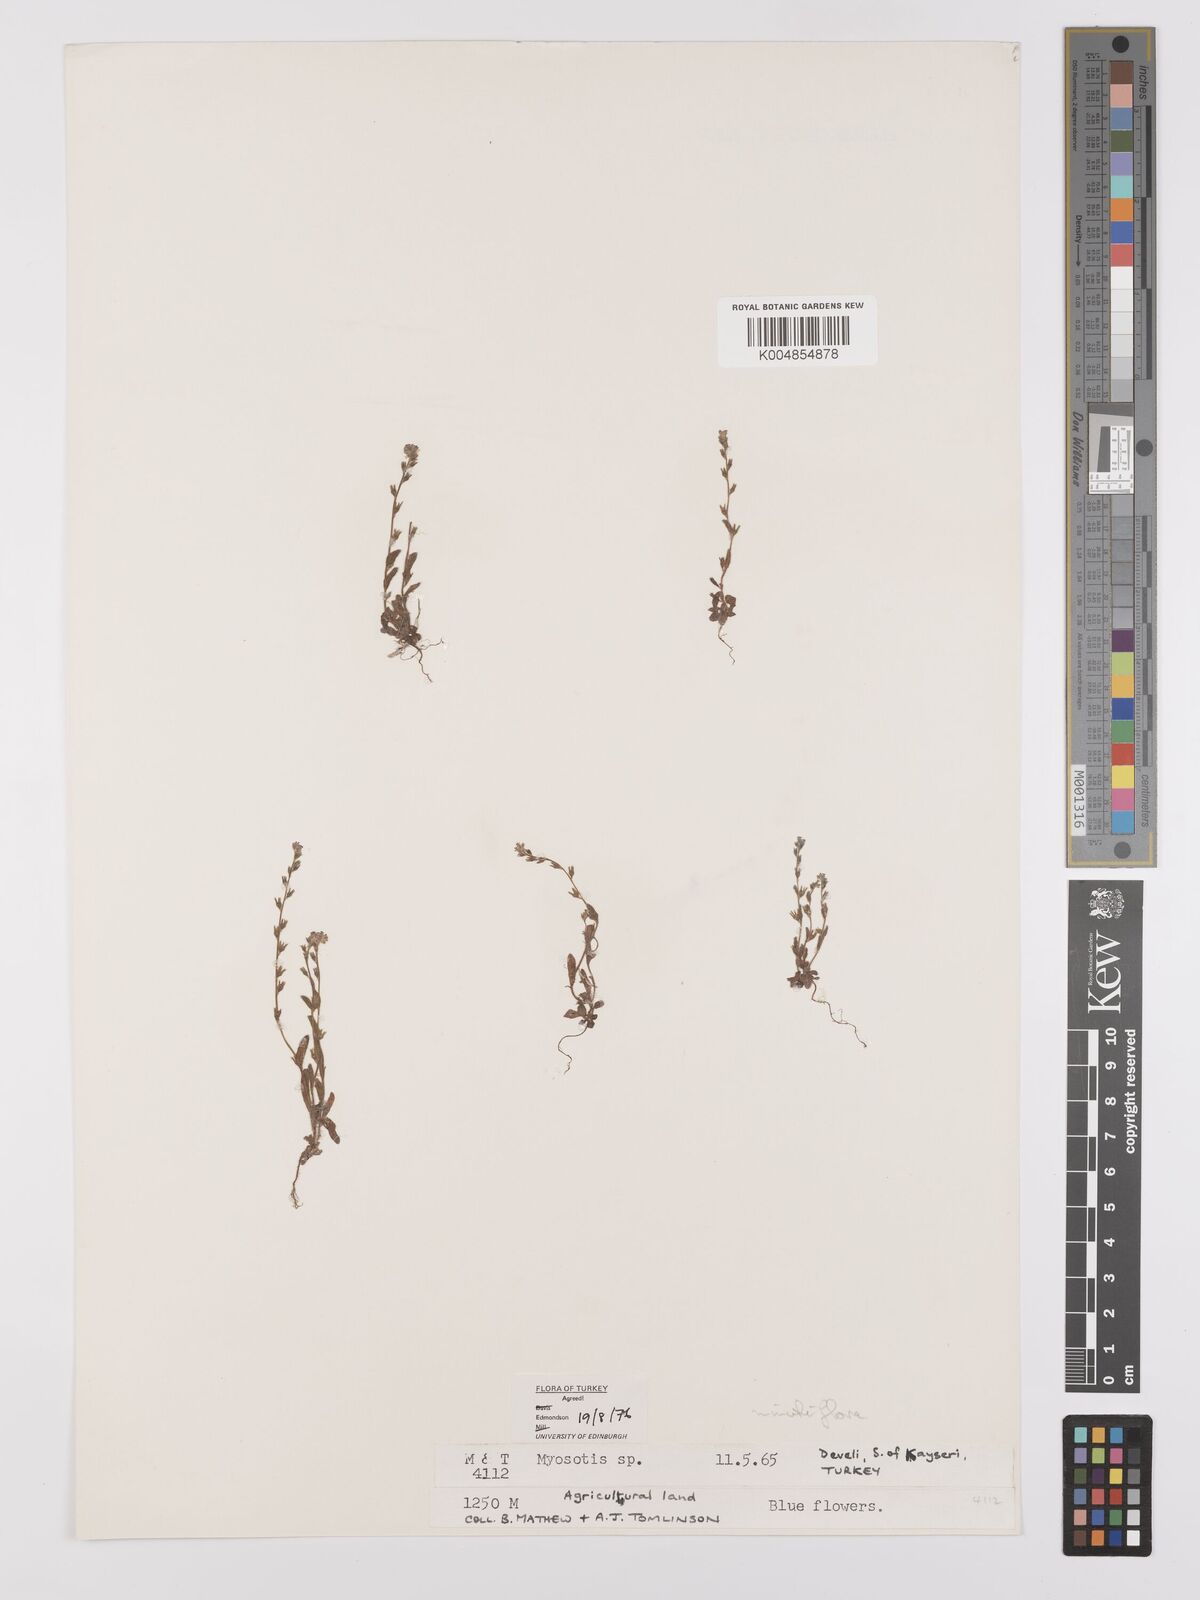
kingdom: Plantae
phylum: Tracheophyta
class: Magnoliopsida
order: Boraginales
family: Boraginaceae
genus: Myosotis
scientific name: Myosotis minutiflora
